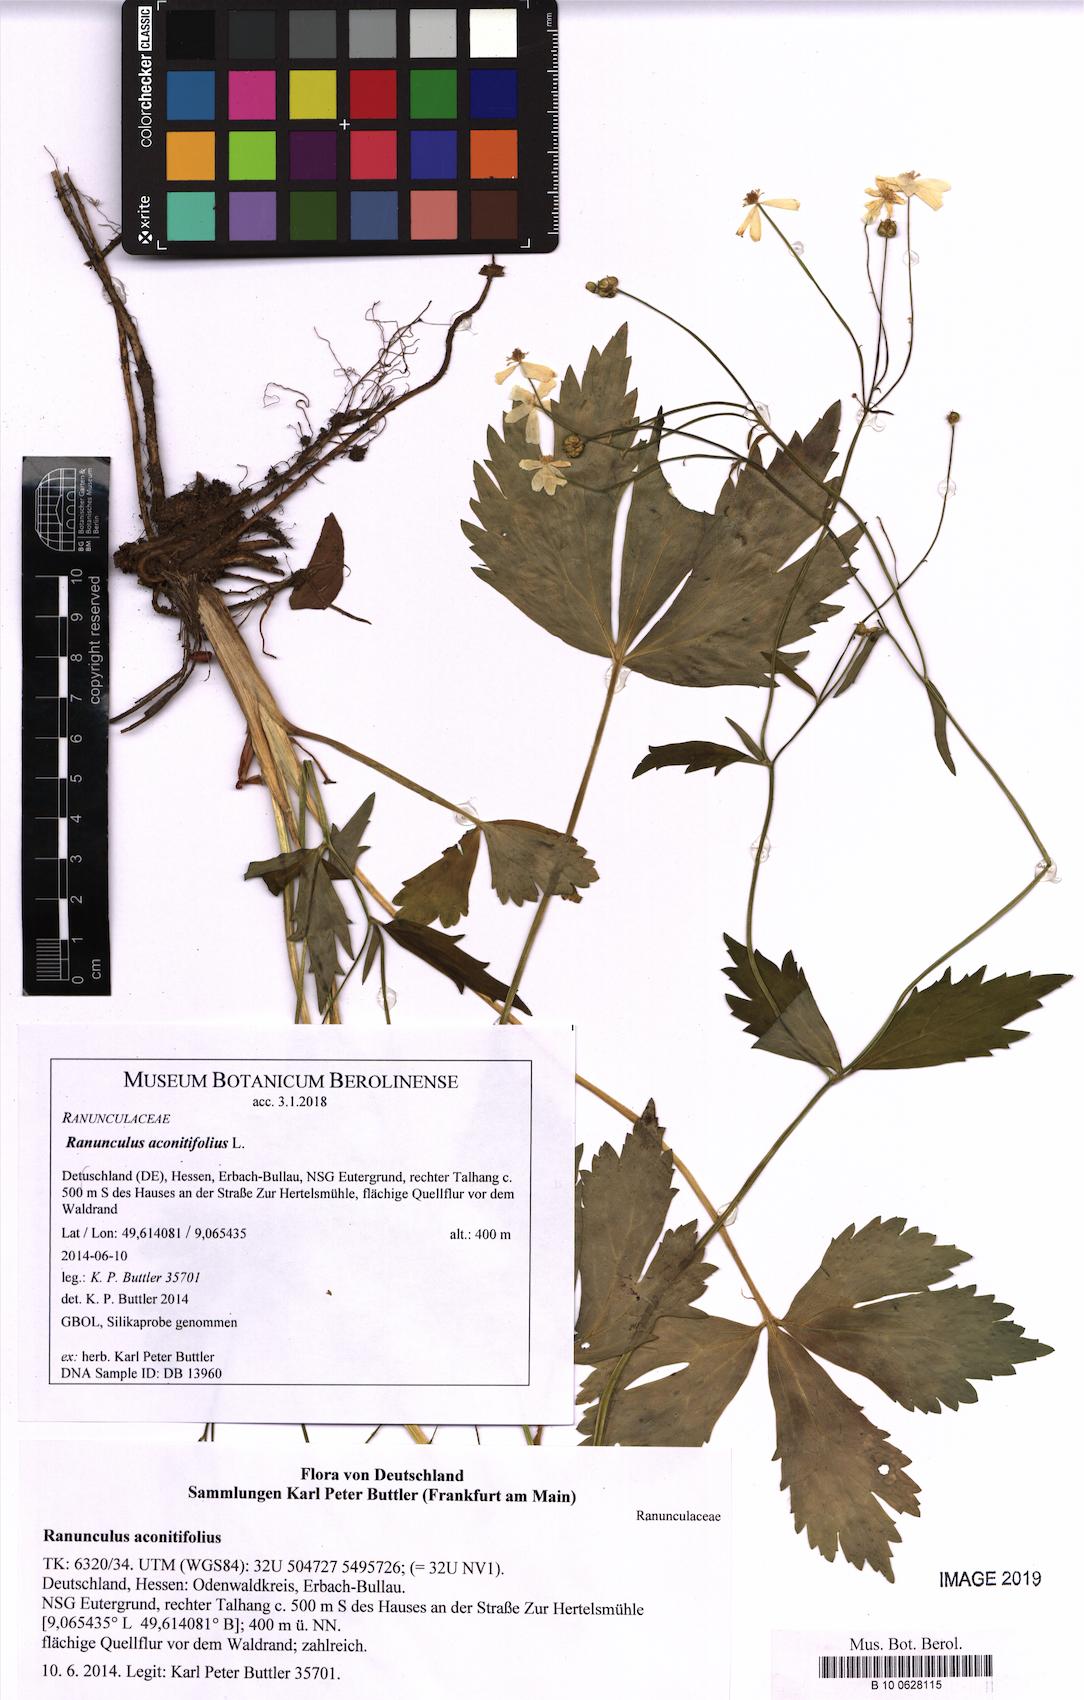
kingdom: Plantae
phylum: Tracheophyta
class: Magnoliopsida
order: Ranunculales
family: Ranunculaceae
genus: Ranunculus
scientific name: Ranunculus aconitifolius
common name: Aconite-leaved buttercup
